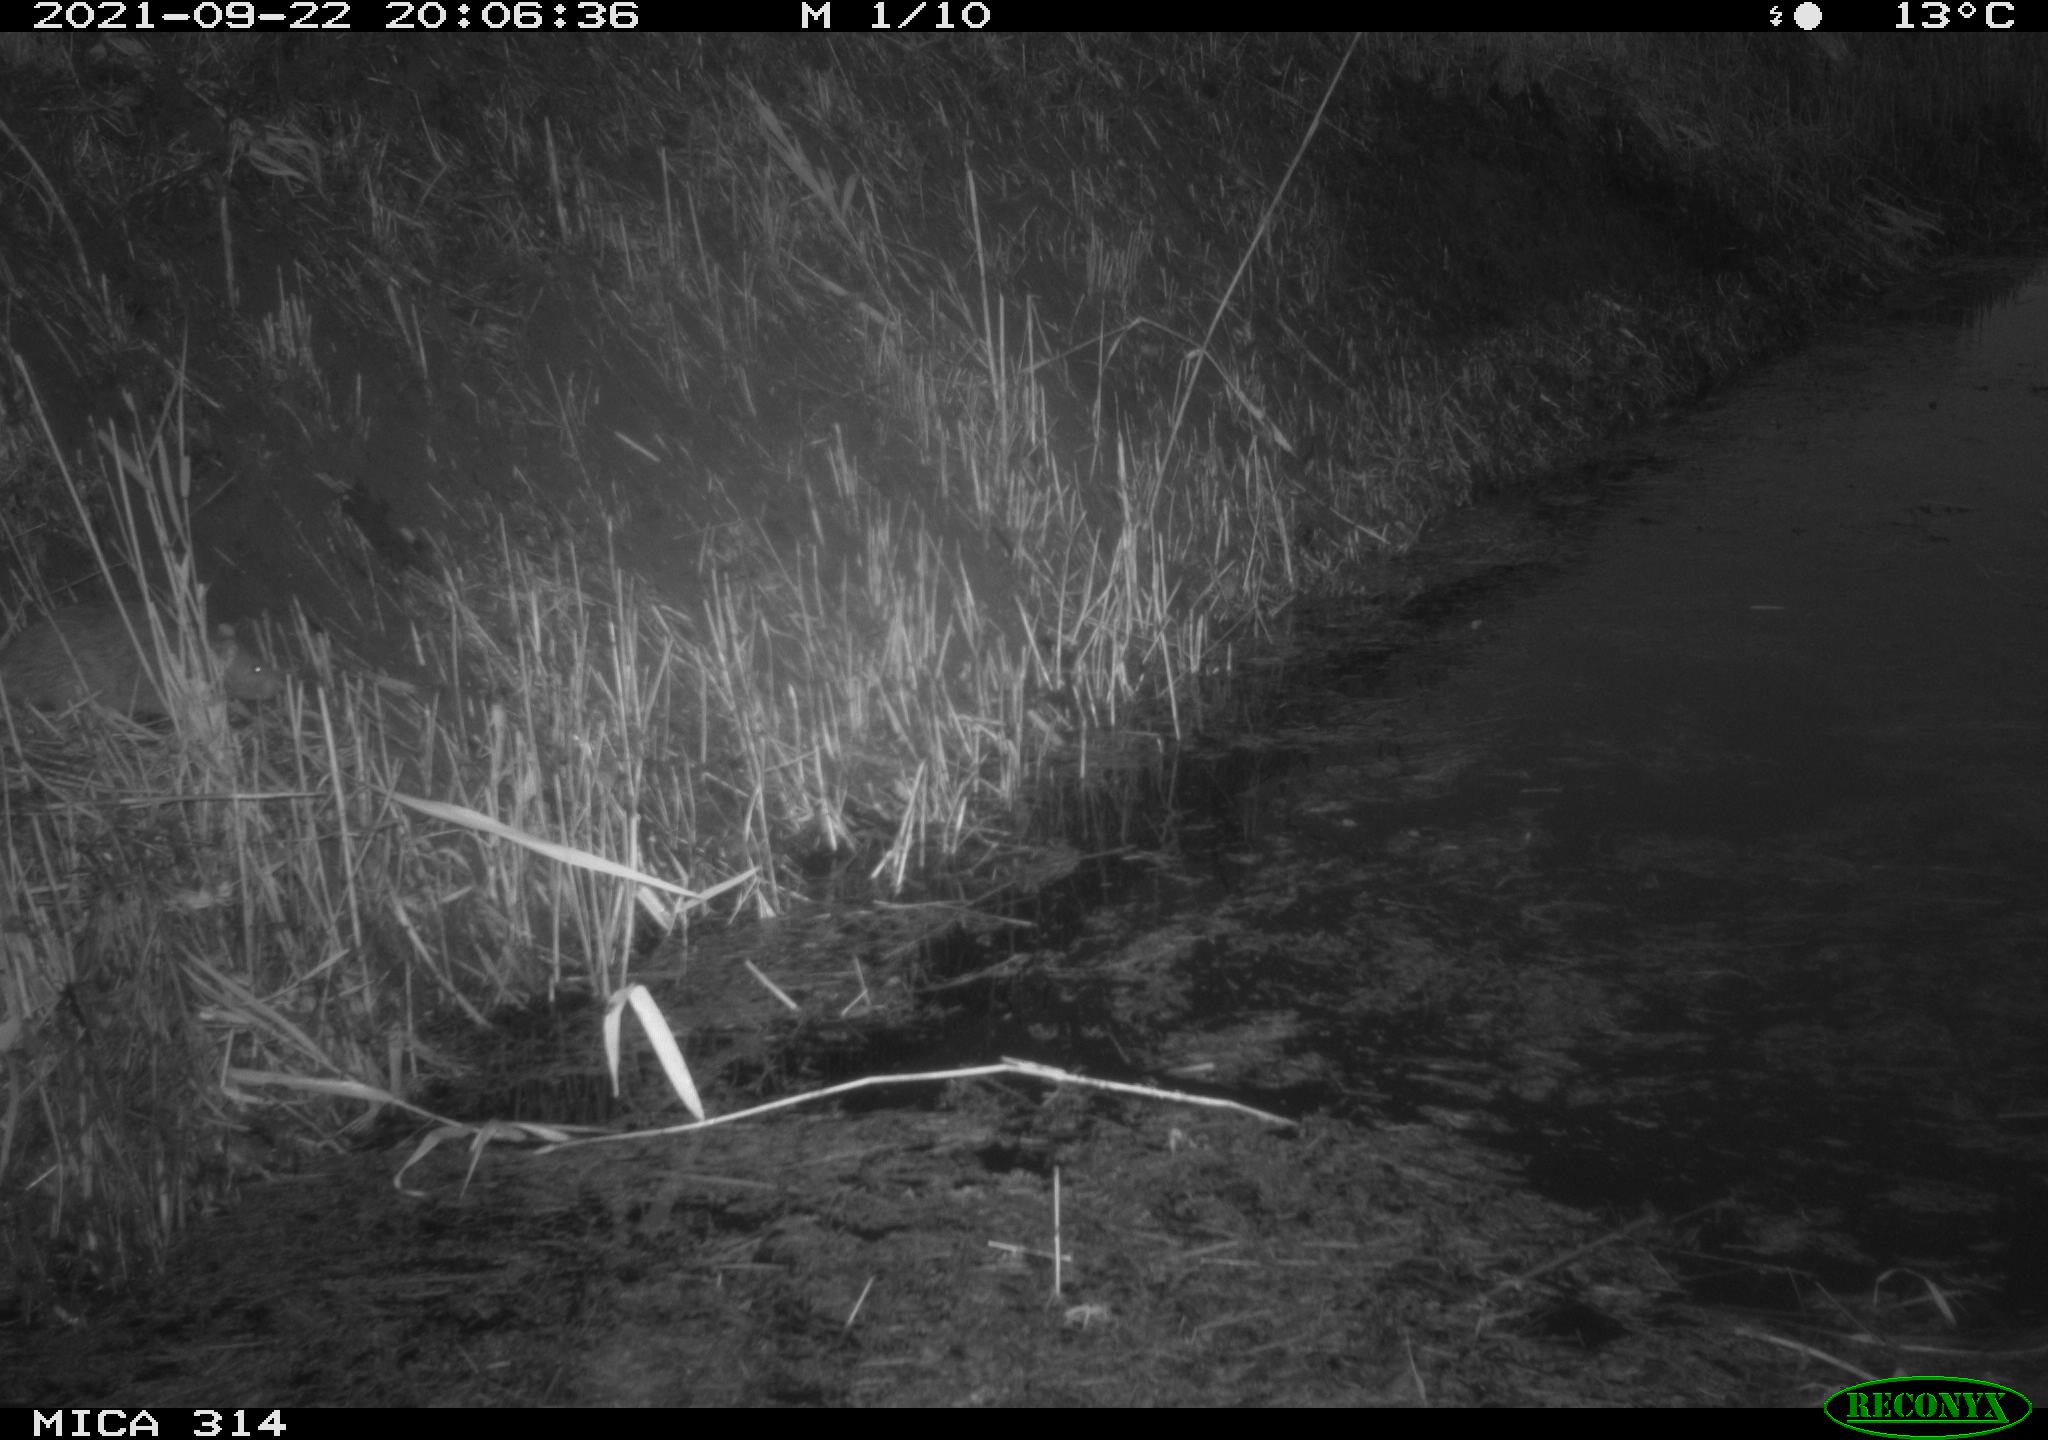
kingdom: Animalia
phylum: Chordata
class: Mammalia
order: Rodentia
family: Muridae
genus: Rattus
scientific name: Rattus norvegicus
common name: Brown rat
